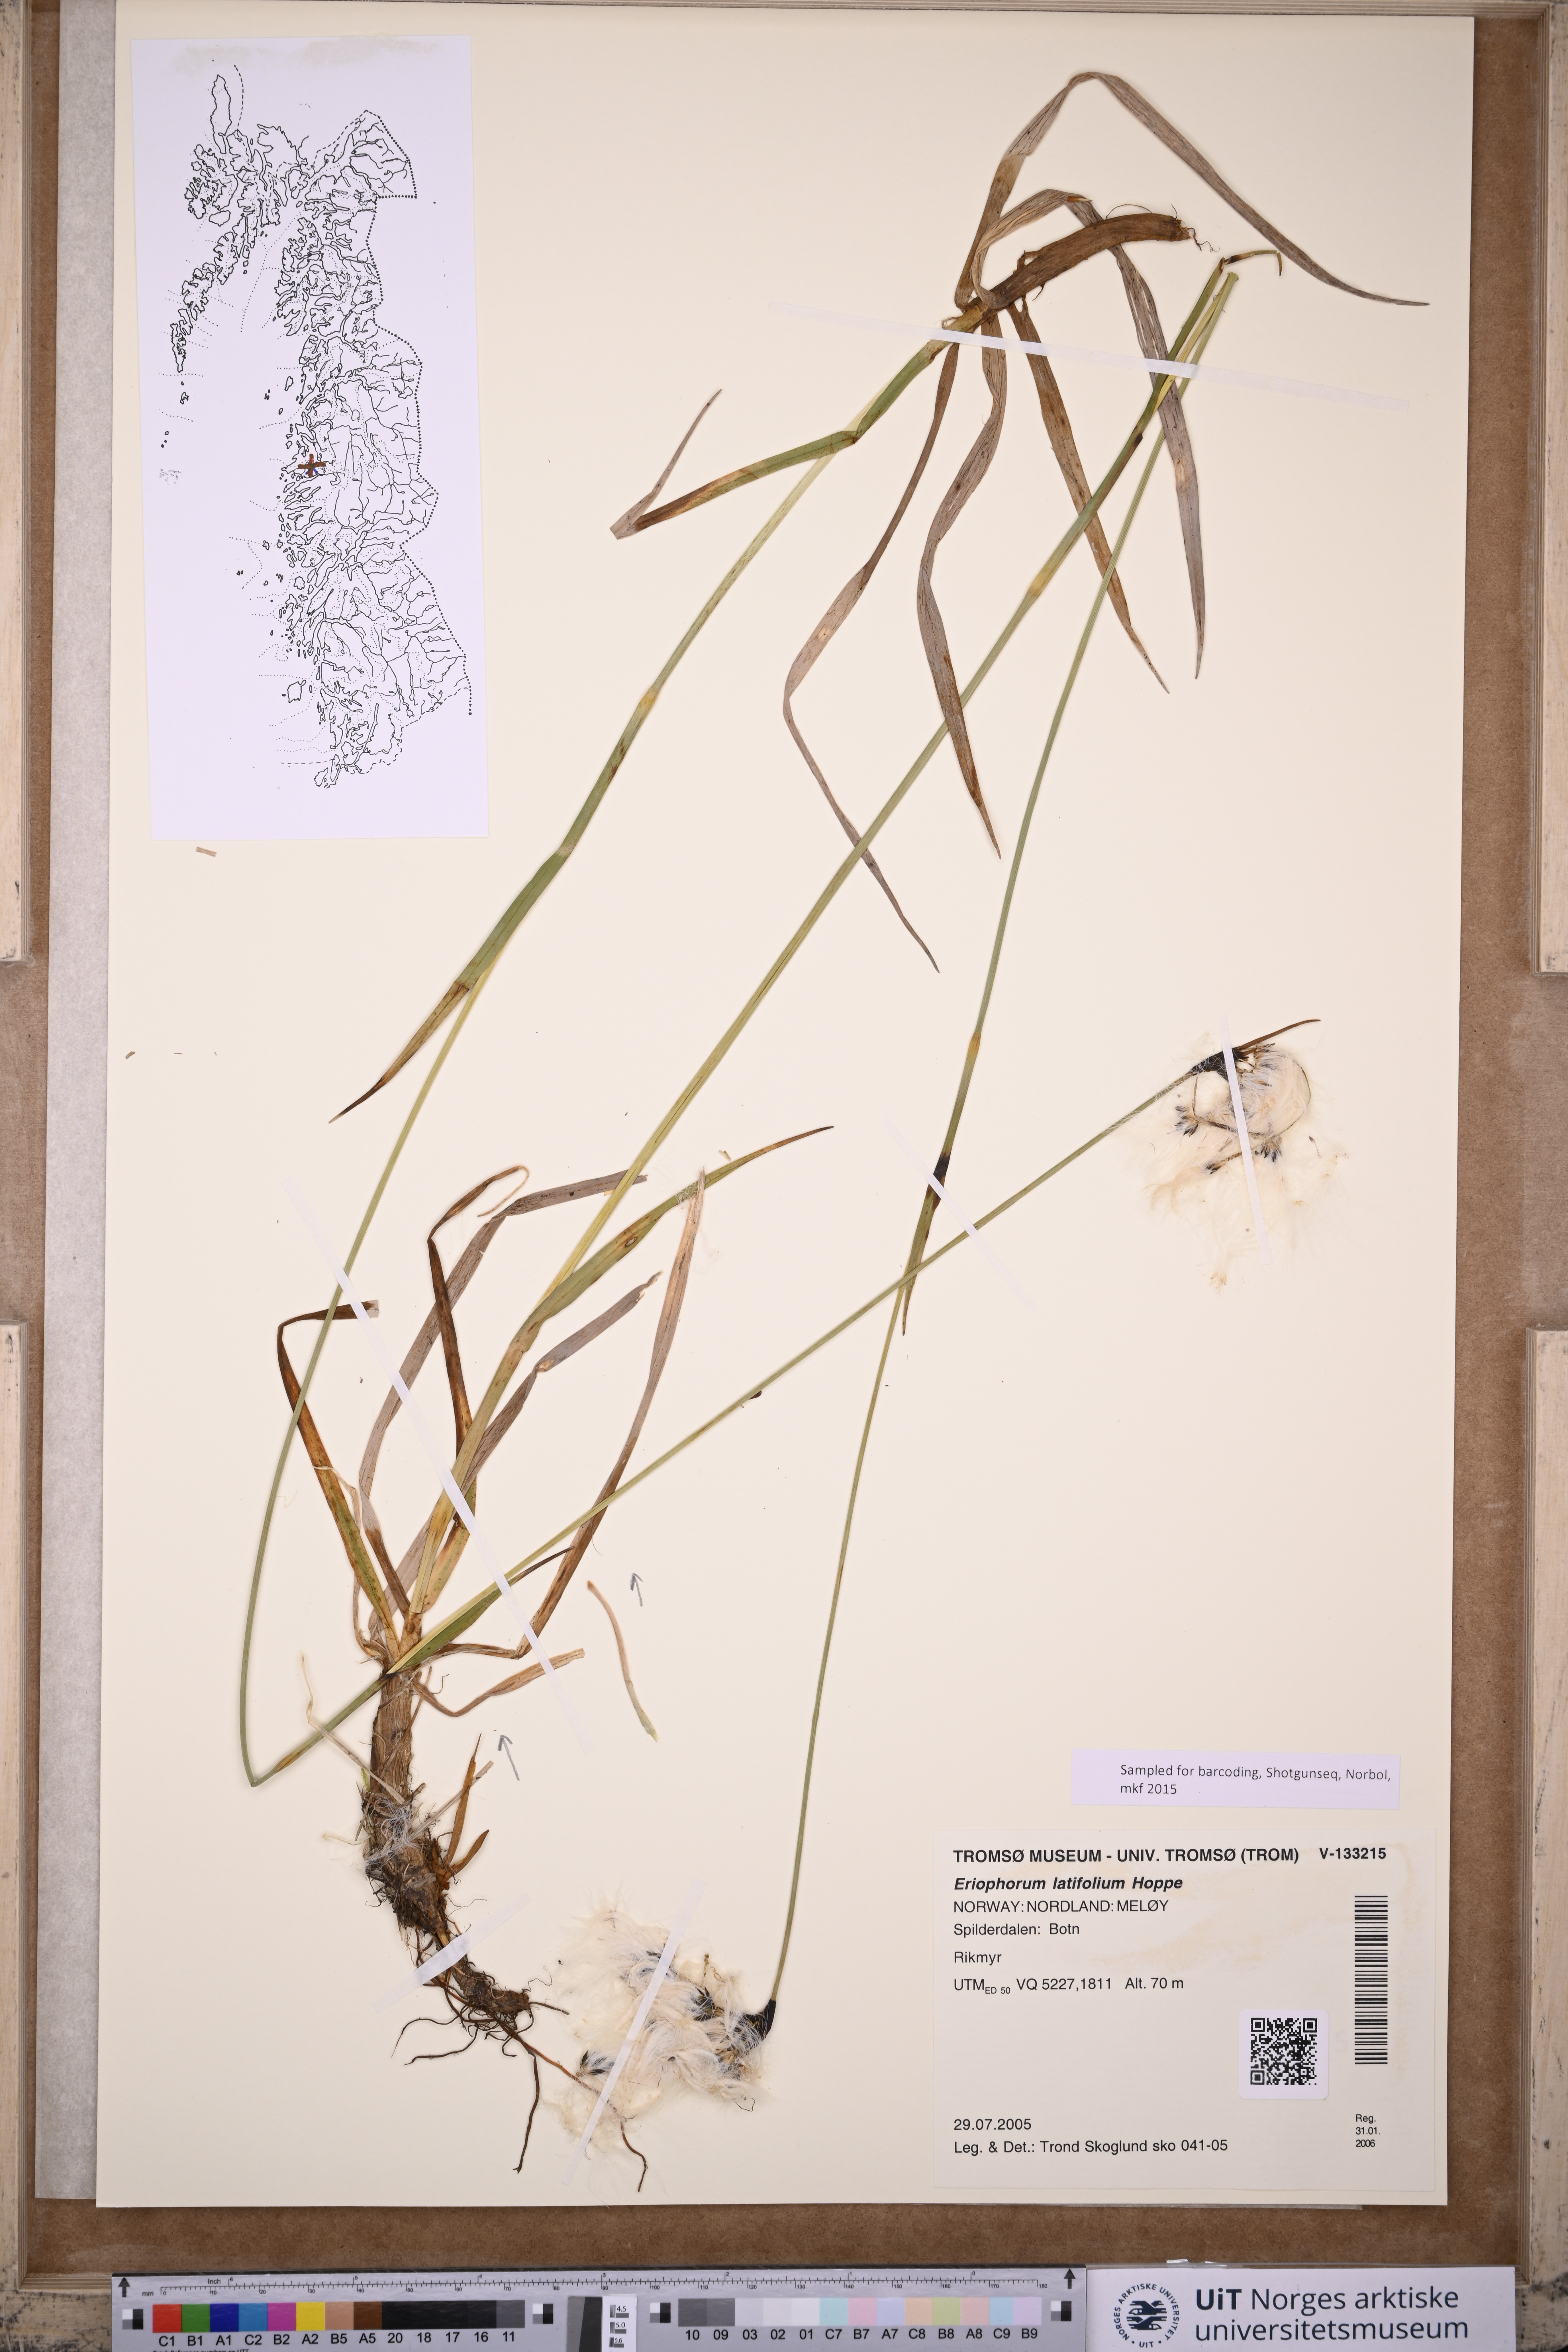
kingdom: Plantae
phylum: Tracheophyta
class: Liliopsida
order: Poales
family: Cyperaceae
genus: Eriophorum
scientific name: Eriophorum latifolium
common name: Broad-leaved cottongrass
